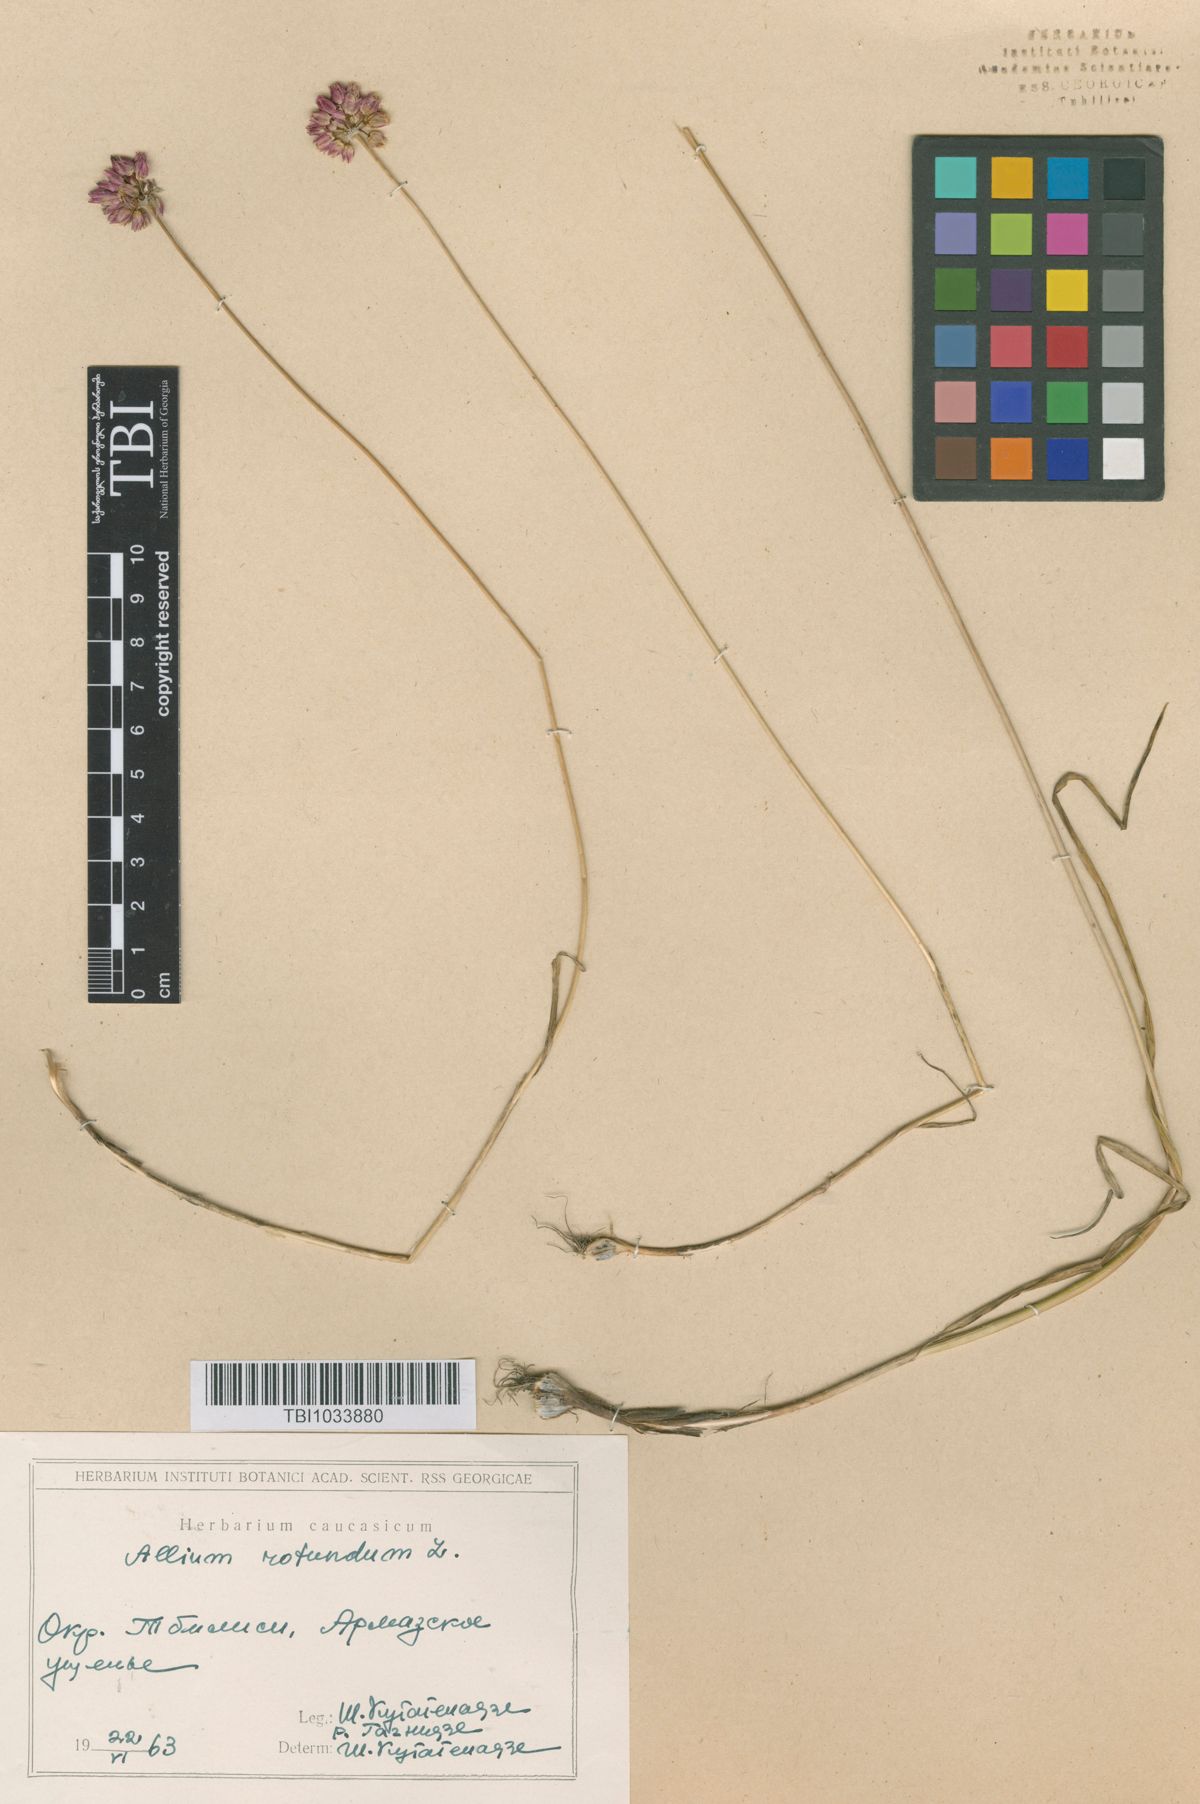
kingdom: Plantae
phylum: Tracheophyta
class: Liliopsida
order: Asparagales
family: Amaryllidaceae
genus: Allium
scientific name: Allium rotundum
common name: Sand leek
